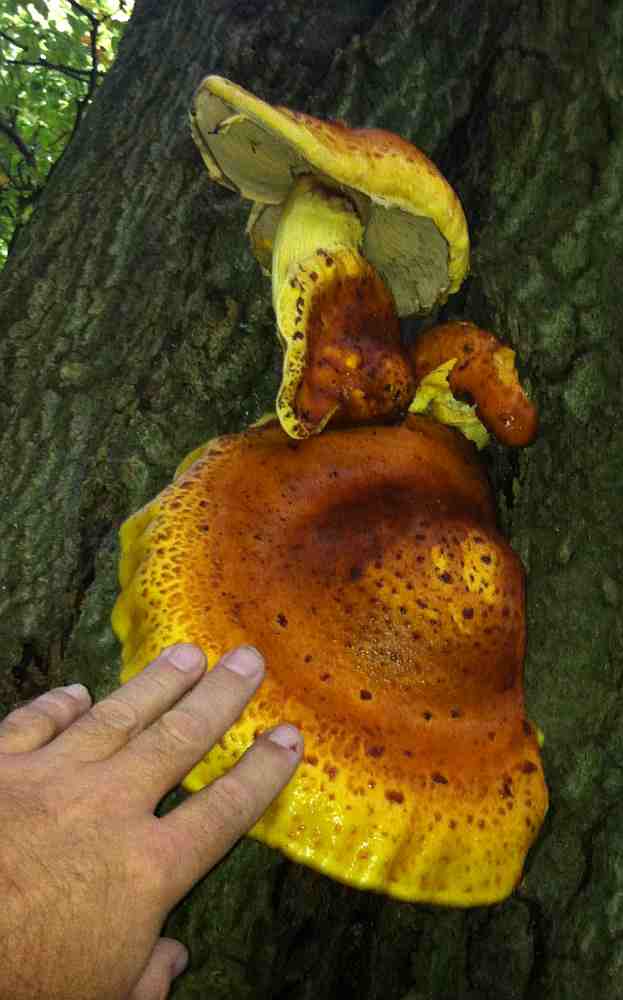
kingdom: Fungi
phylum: Basidiomycota
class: Agaricomycetes
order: Agaricales
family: Strophariaceae
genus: Pholiota
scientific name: Pholiota adiposa
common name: højtsiddende skælhat
